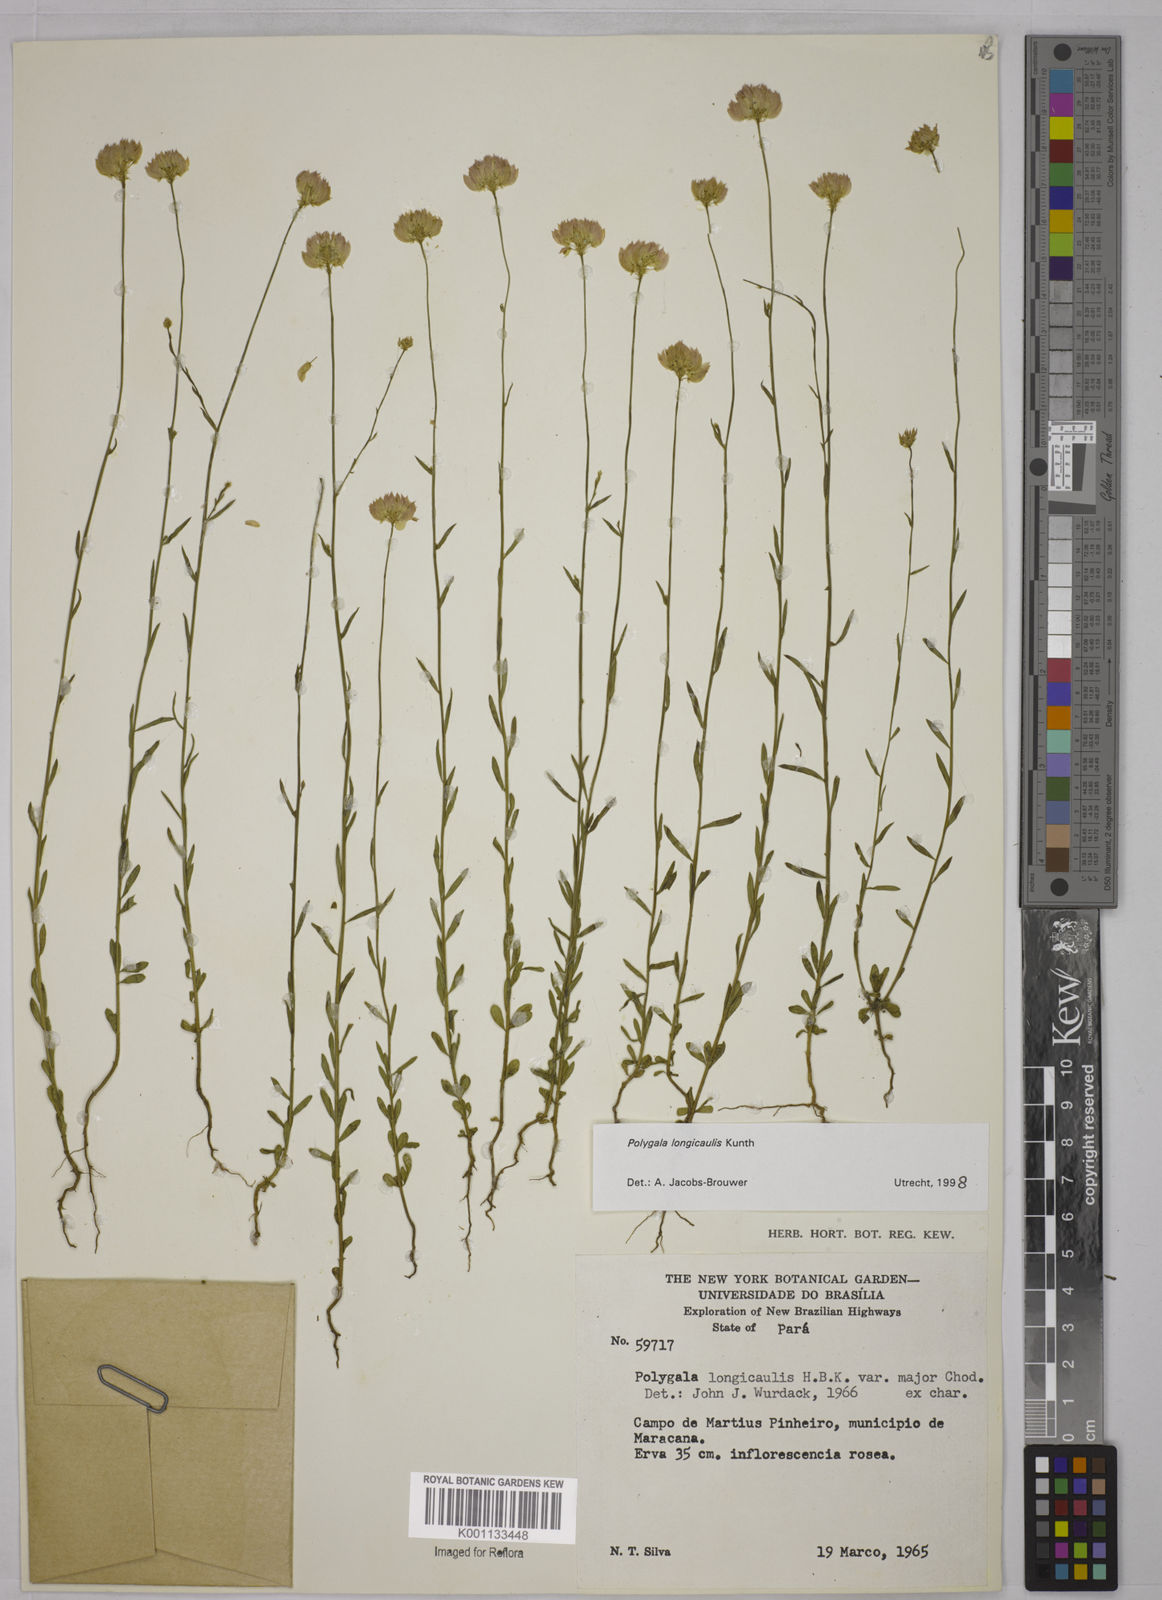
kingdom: Plantae
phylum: Tracheophyta
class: Magnoliopsida
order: Fabales
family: Polygalaceae
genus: Polygala
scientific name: Polygala longicaulis
